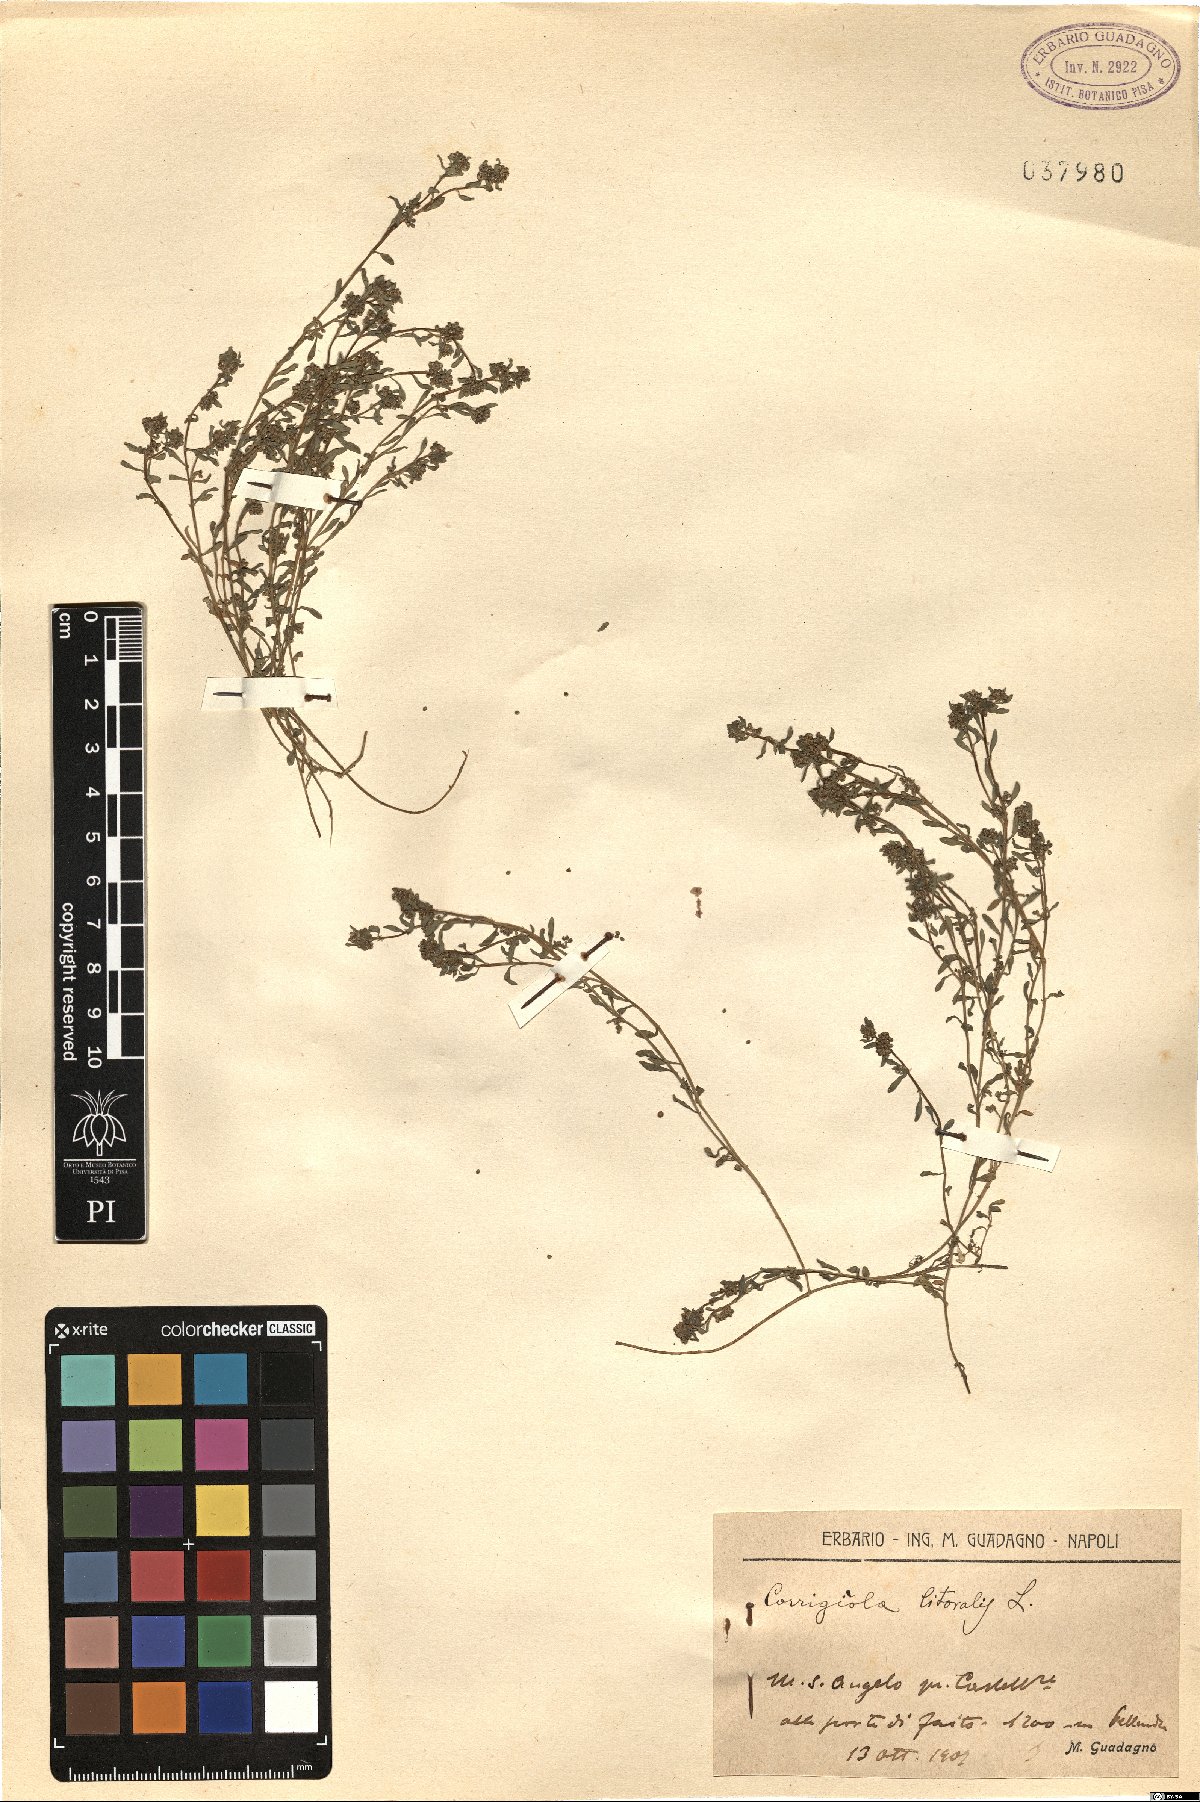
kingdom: Plantae
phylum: Tracheophyta
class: Magnoliopsida
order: Caryophyllales
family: Caryophyllaceae
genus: Corrigiola
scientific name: Corrigiola litoralis
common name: Strapwort
